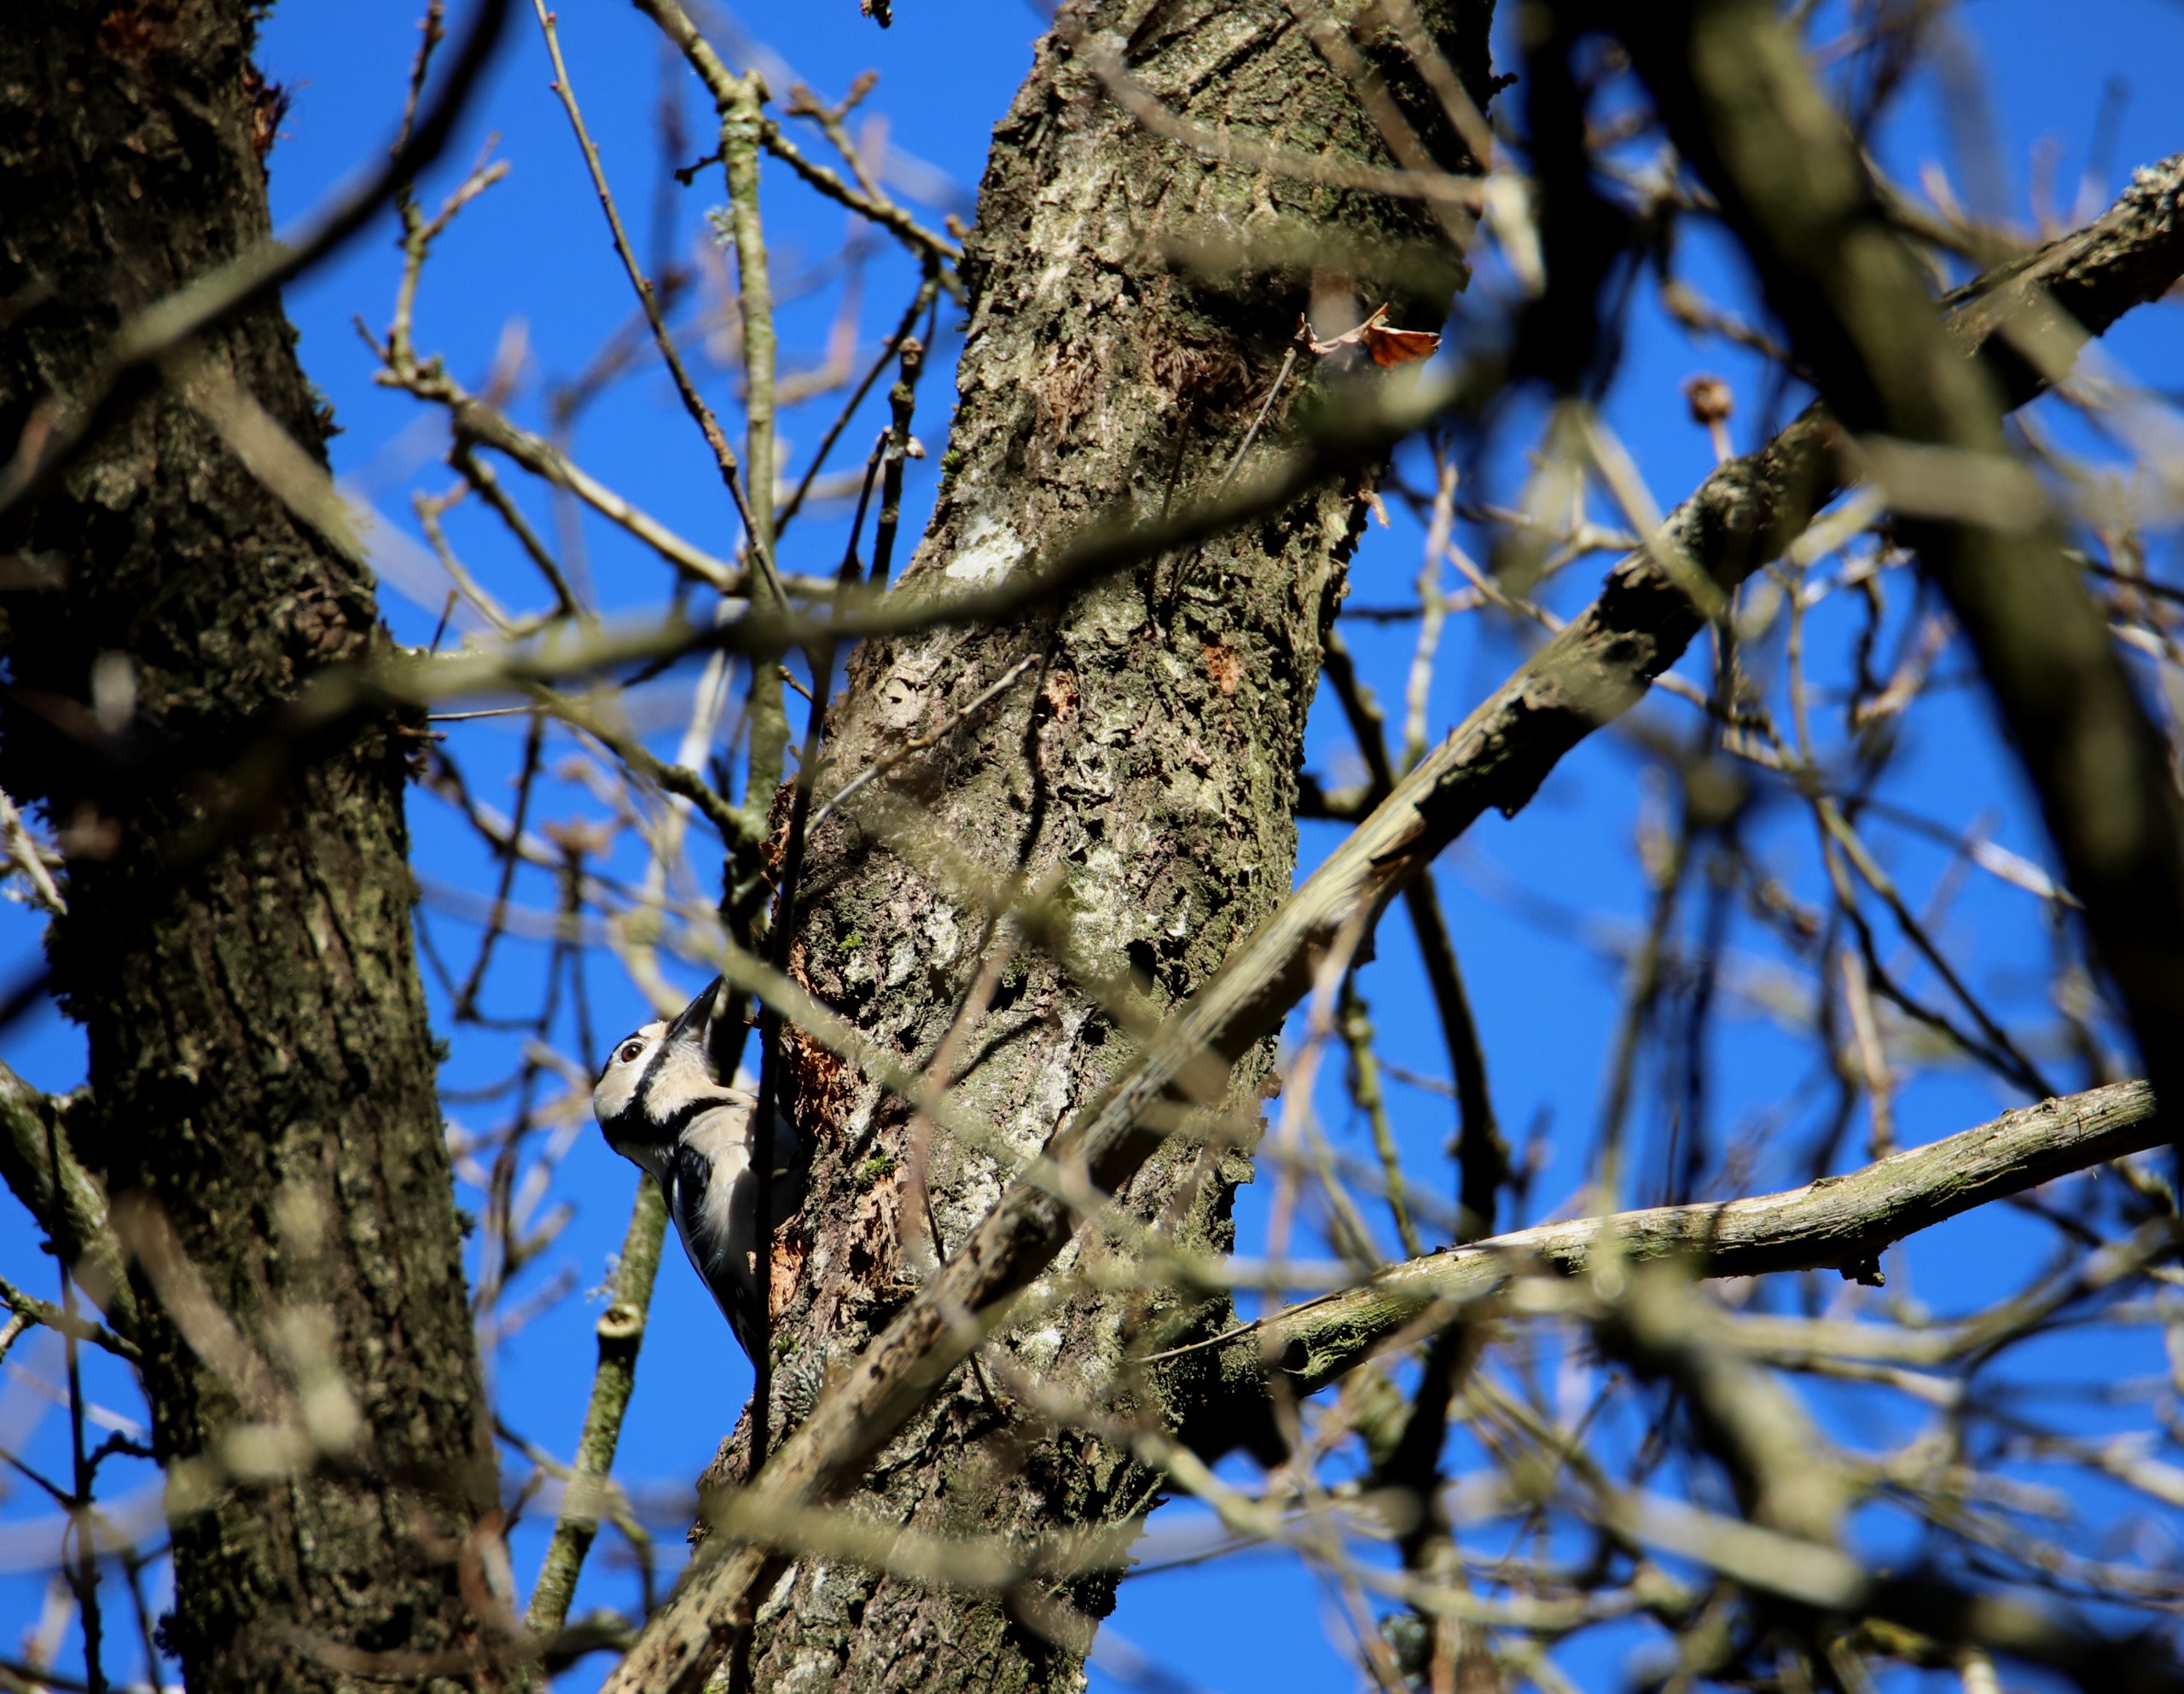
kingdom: Animalia
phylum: Chordata
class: Aves
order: Piciformes
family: Picidae
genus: Dendrocopos
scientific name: Dendrocopos major
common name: Stor flagspætte
